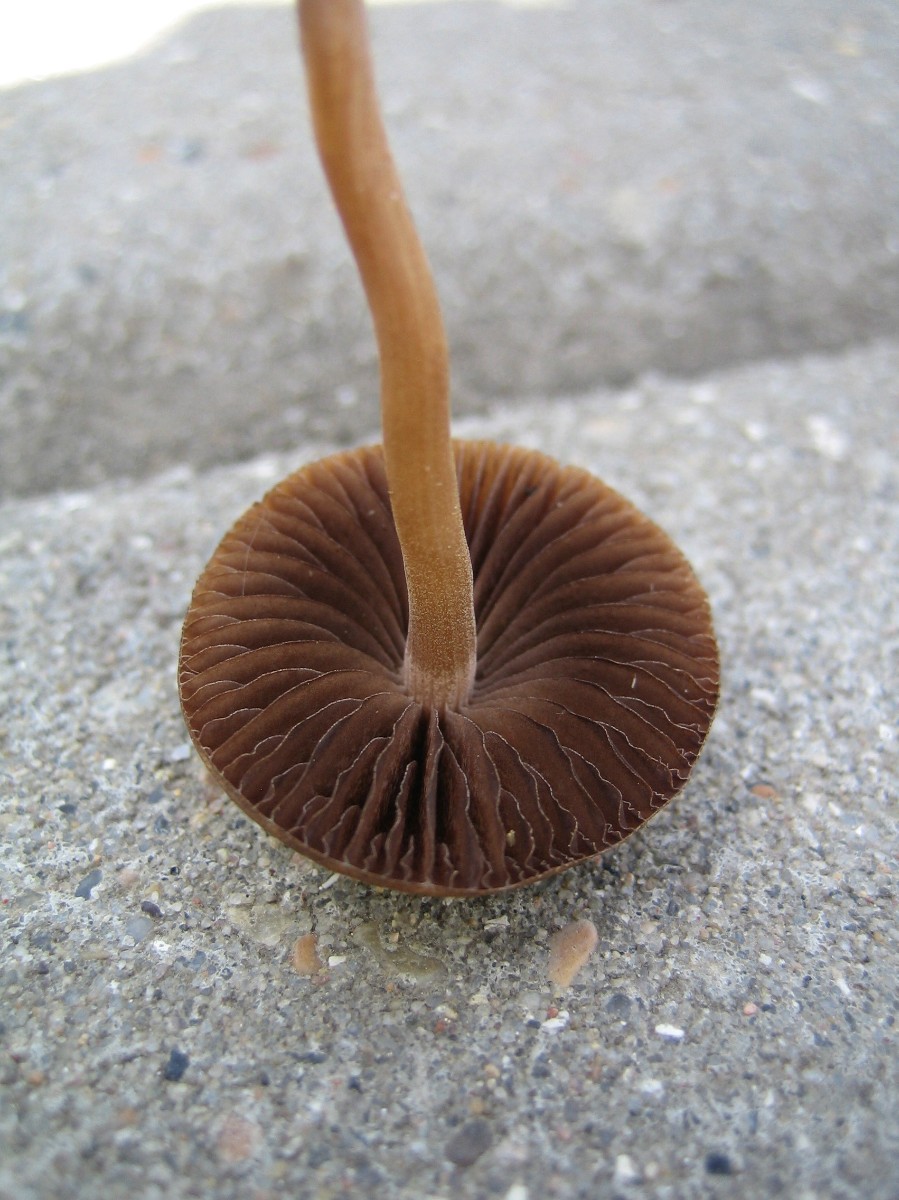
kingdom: Fungi
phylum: Basidiomycota
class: Agaricomycetes
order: Agaricales
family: Bolbitiaceae
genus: Panaeolina
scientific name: Panaeolina foenisecii
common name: høslætsvamp
